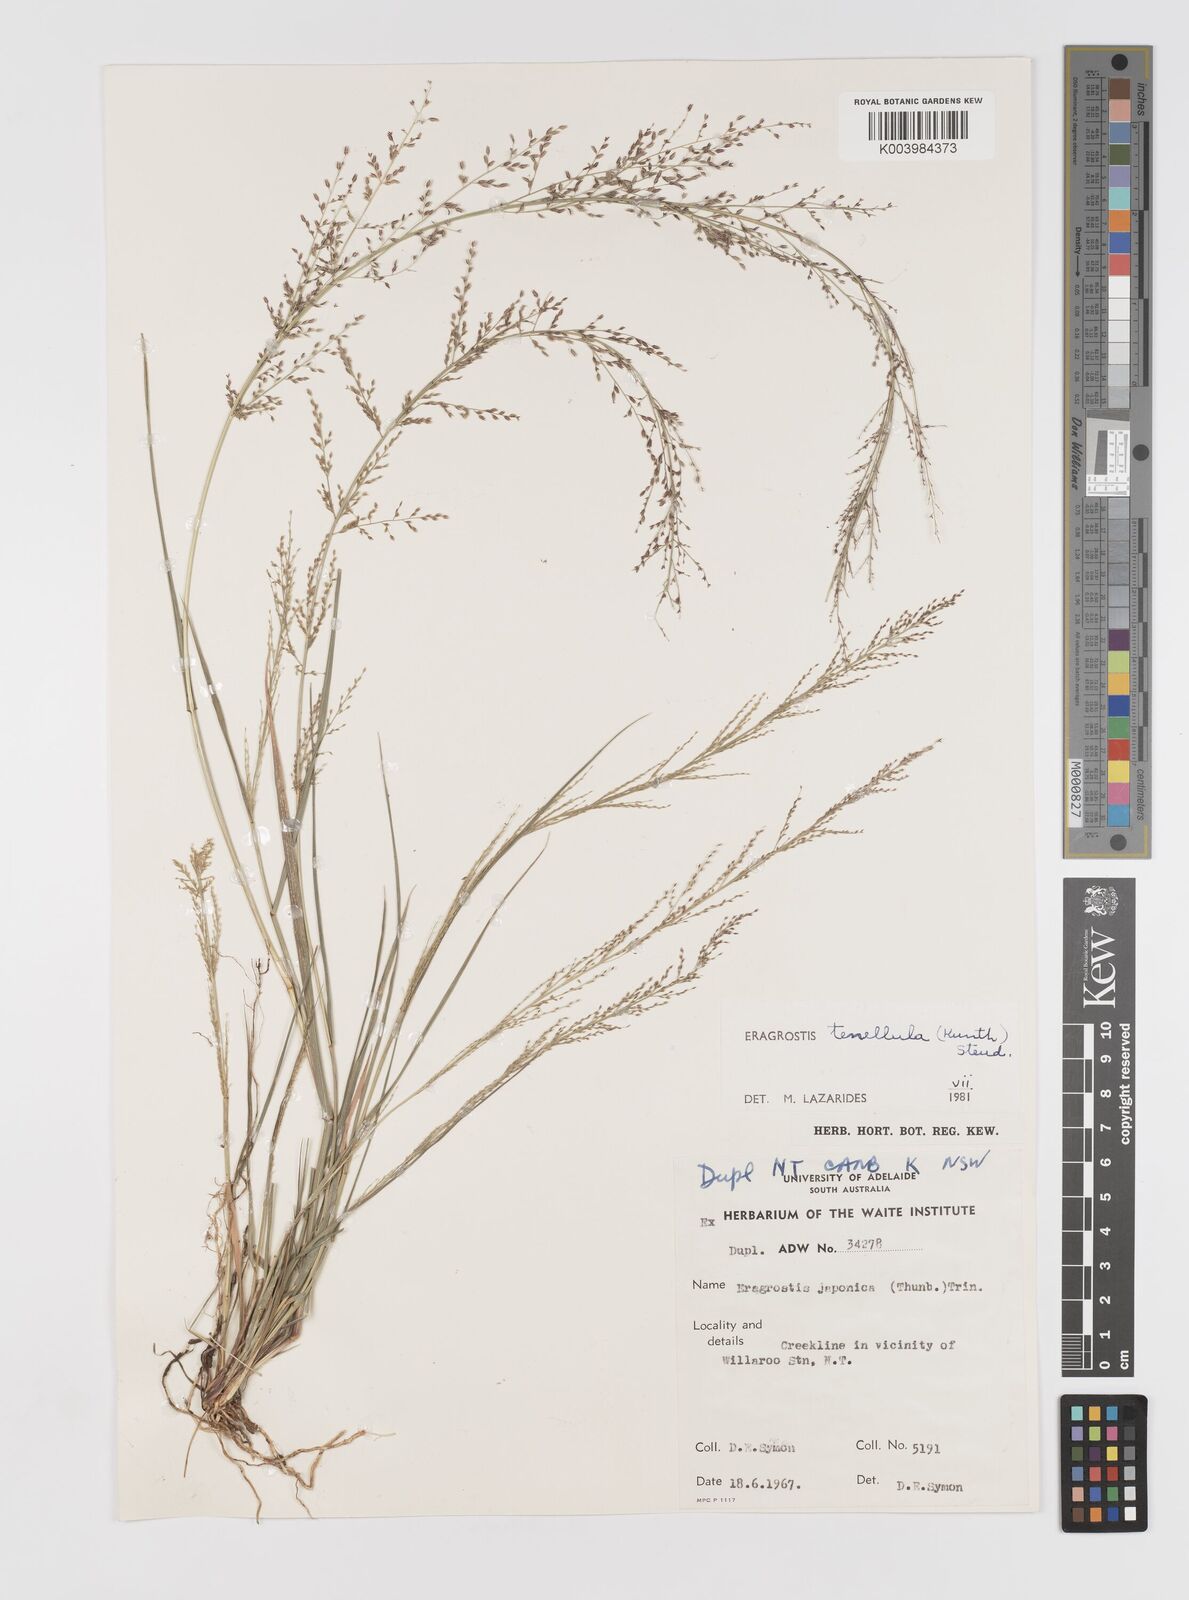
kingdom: Plantae
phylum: Tracheophyta
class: Liliopsida
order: Poales
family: Poaceae
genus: Eragrostis
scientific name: Eragrostis tenellula
